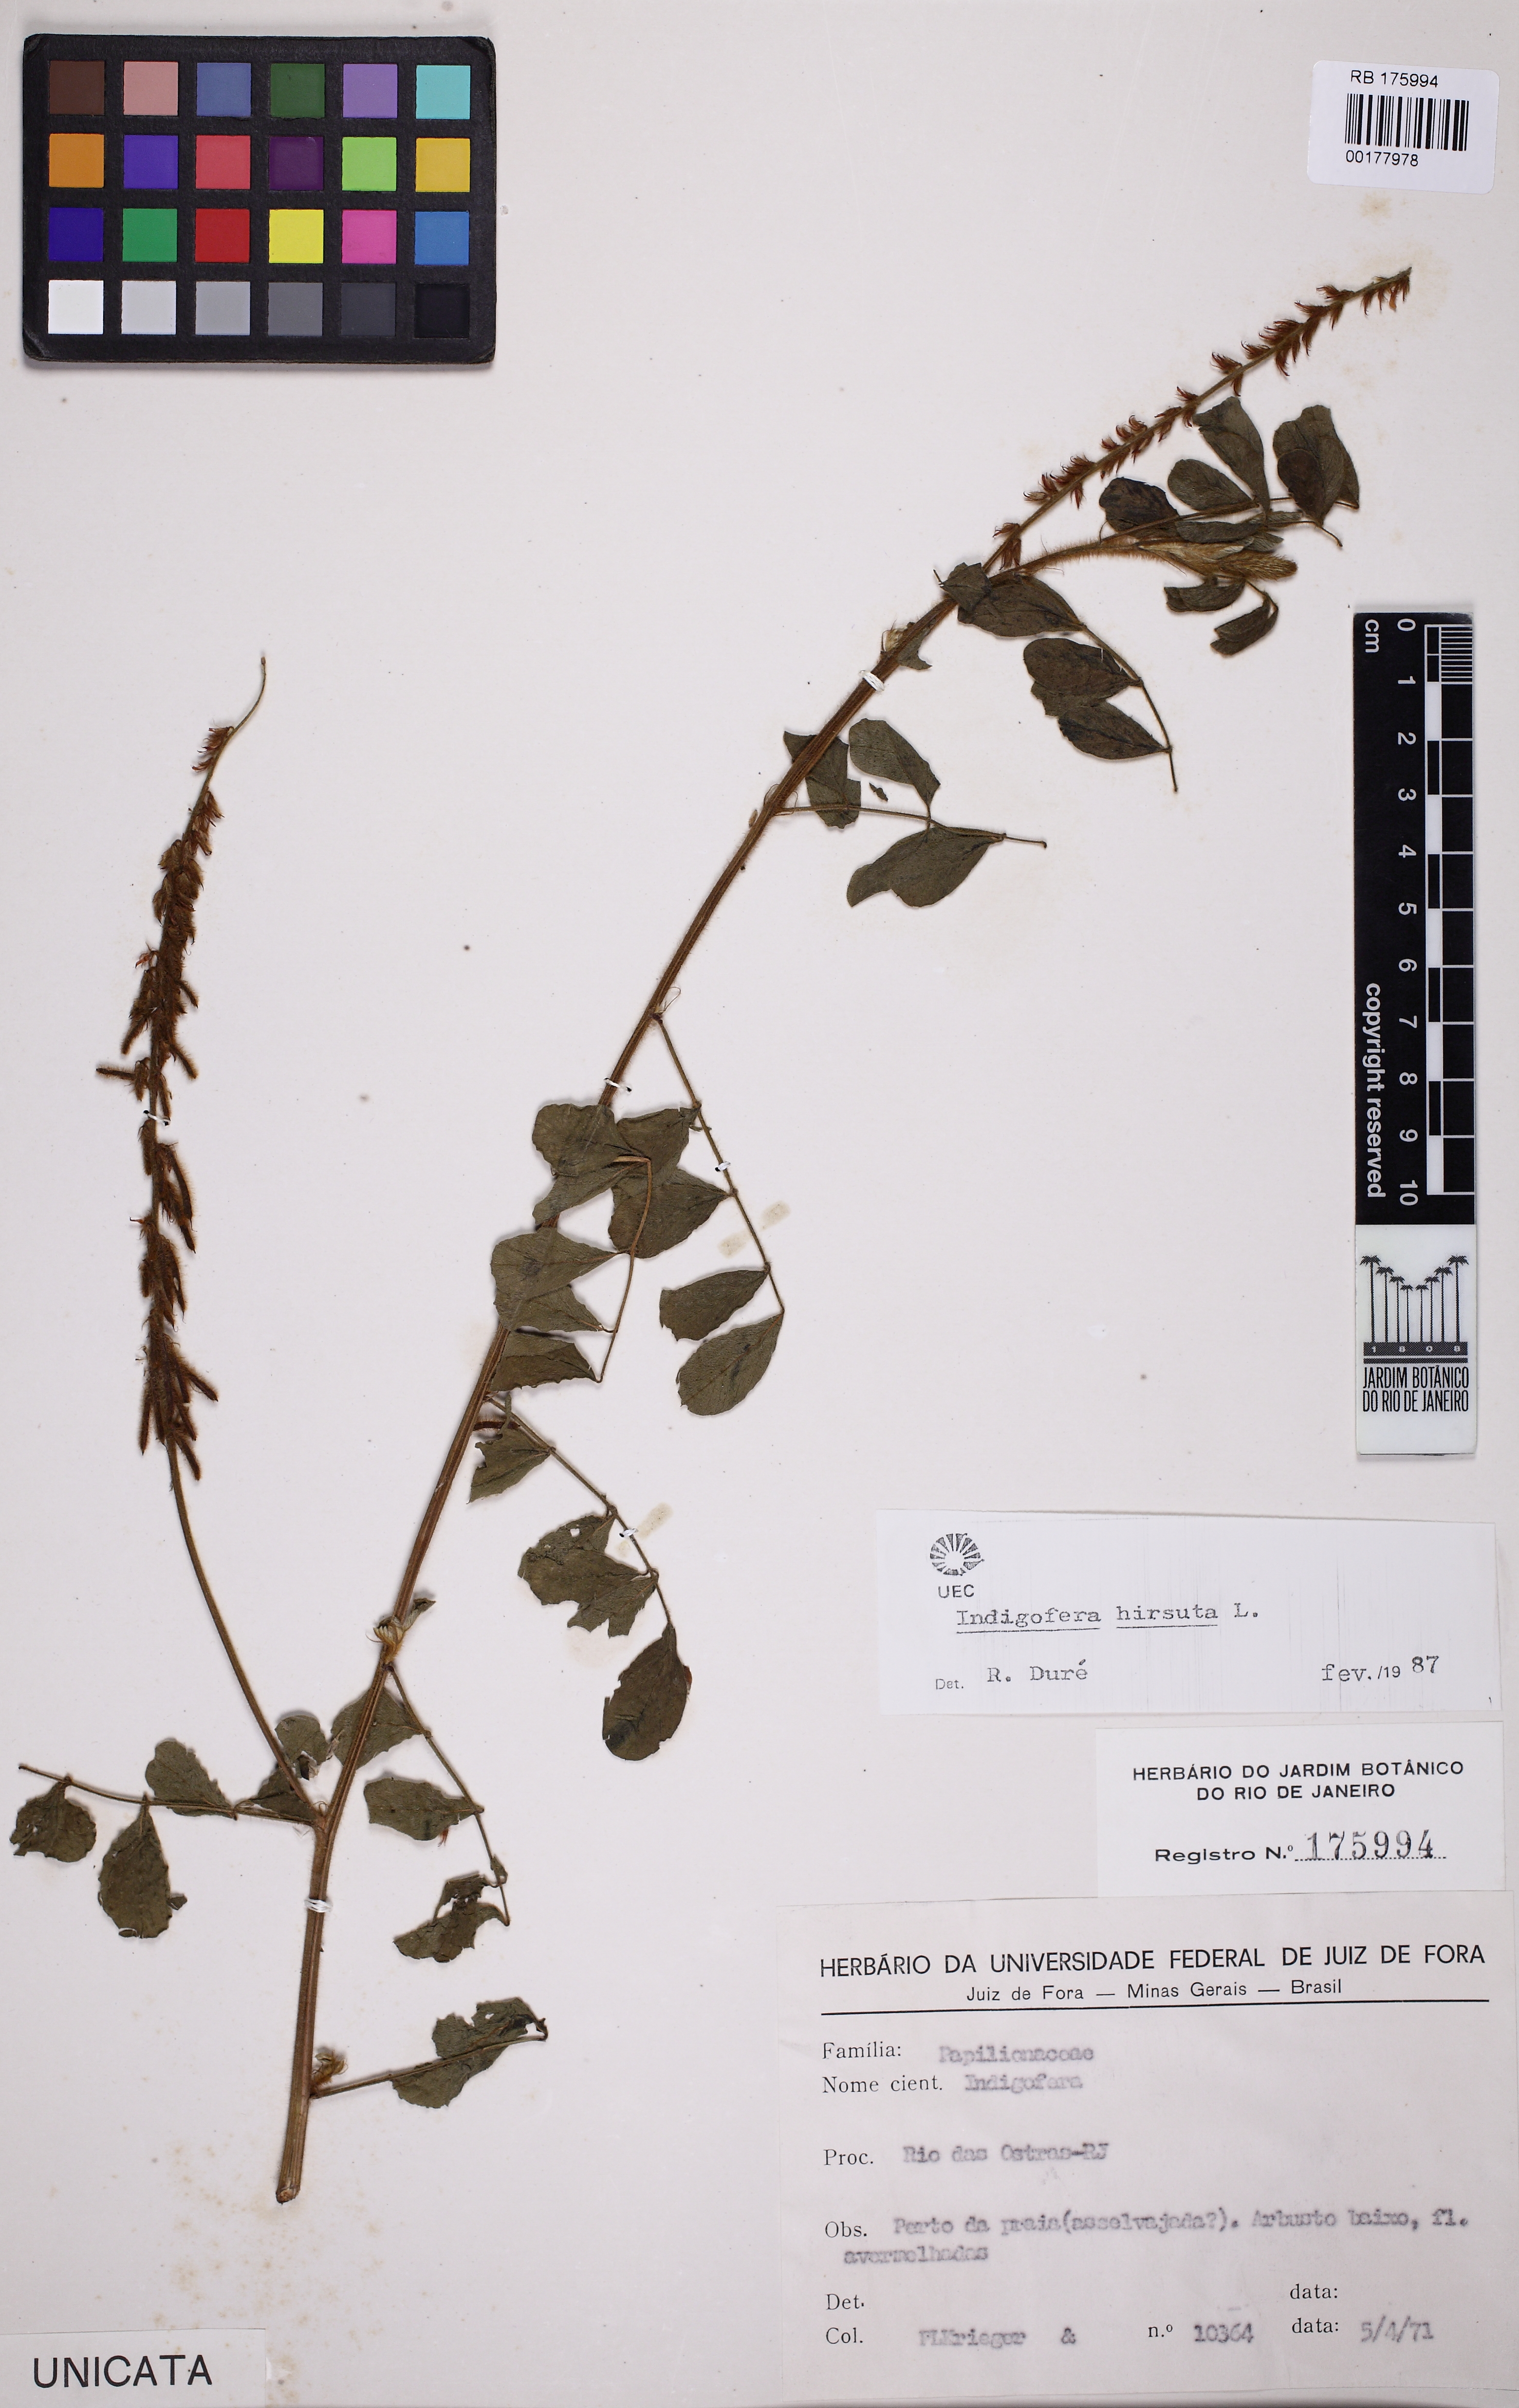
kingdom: Plantae
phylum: Tracheophyta
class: Magnoliopsida
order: Fabales
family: Fabaceae
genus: Indigofera
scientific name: Indigofera hirsuta
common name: Hairy indigo
